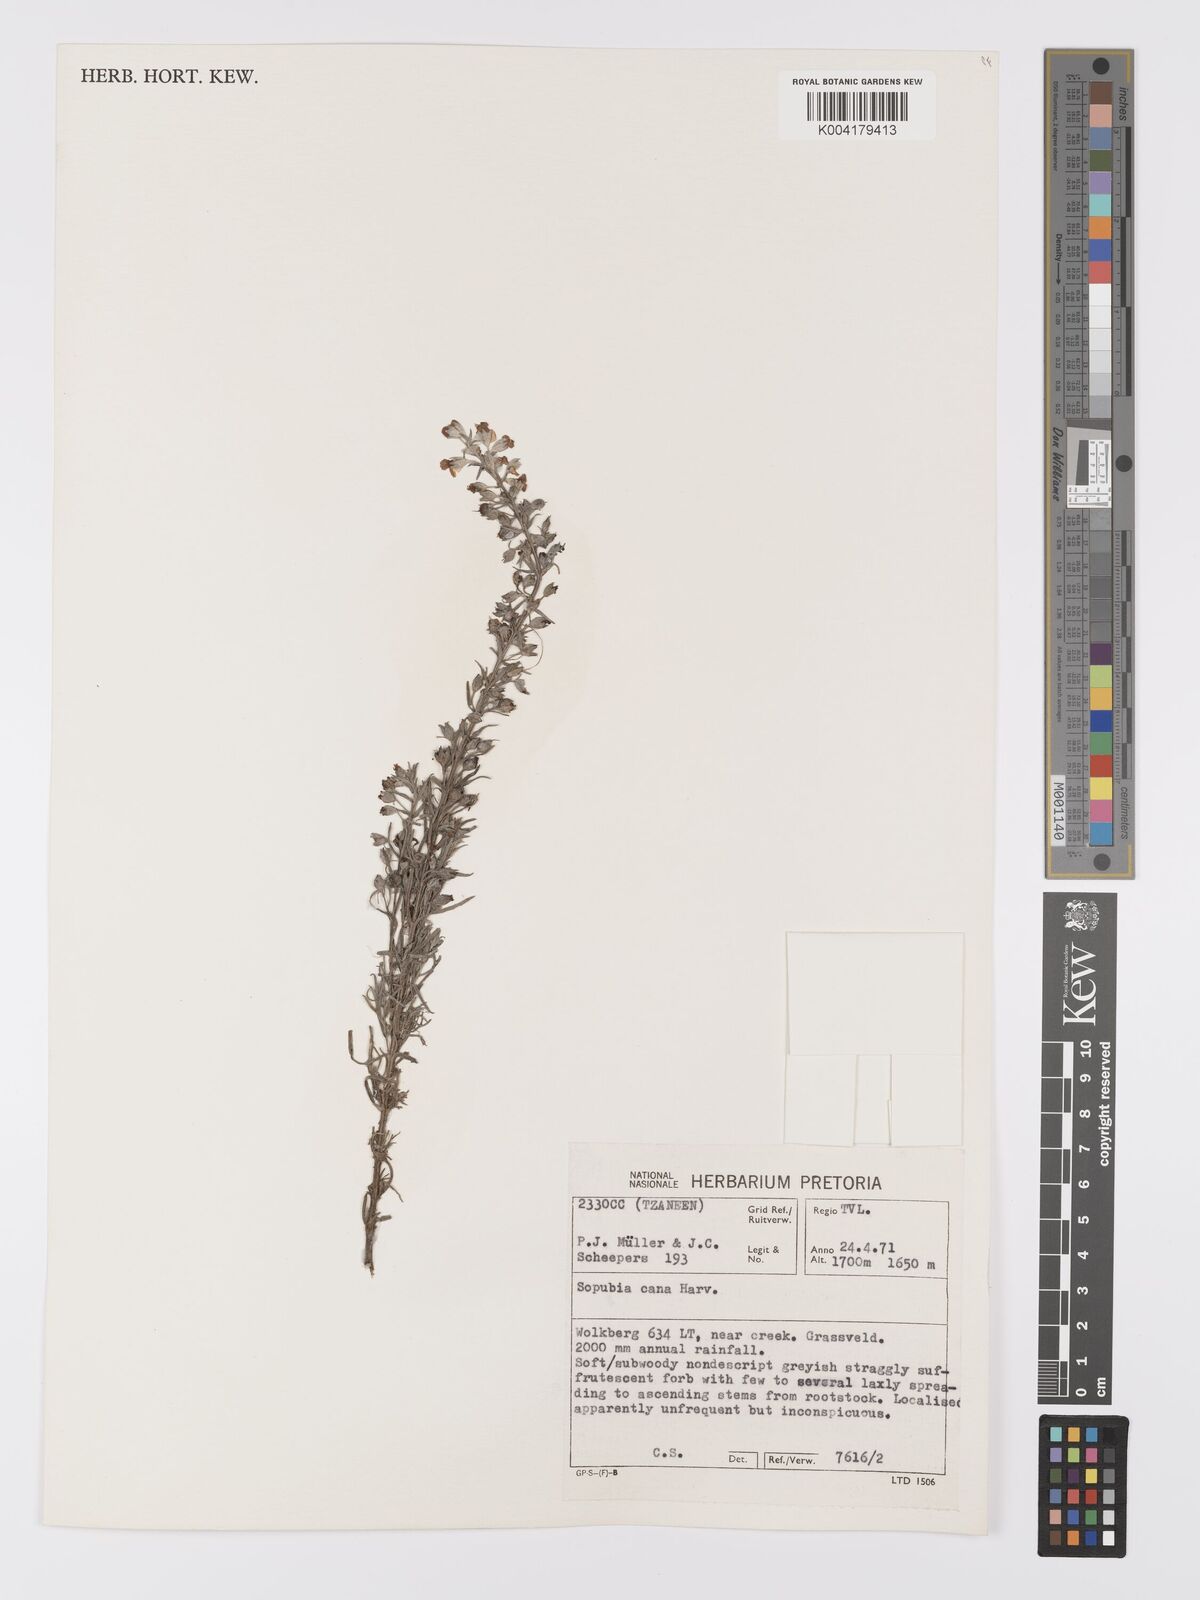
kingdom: Plantae
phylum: Tracheophyta
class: Magnoliopsida
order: Lamiales
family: Orobanchaceae
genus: Sopubia
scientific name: Sopubia cana
